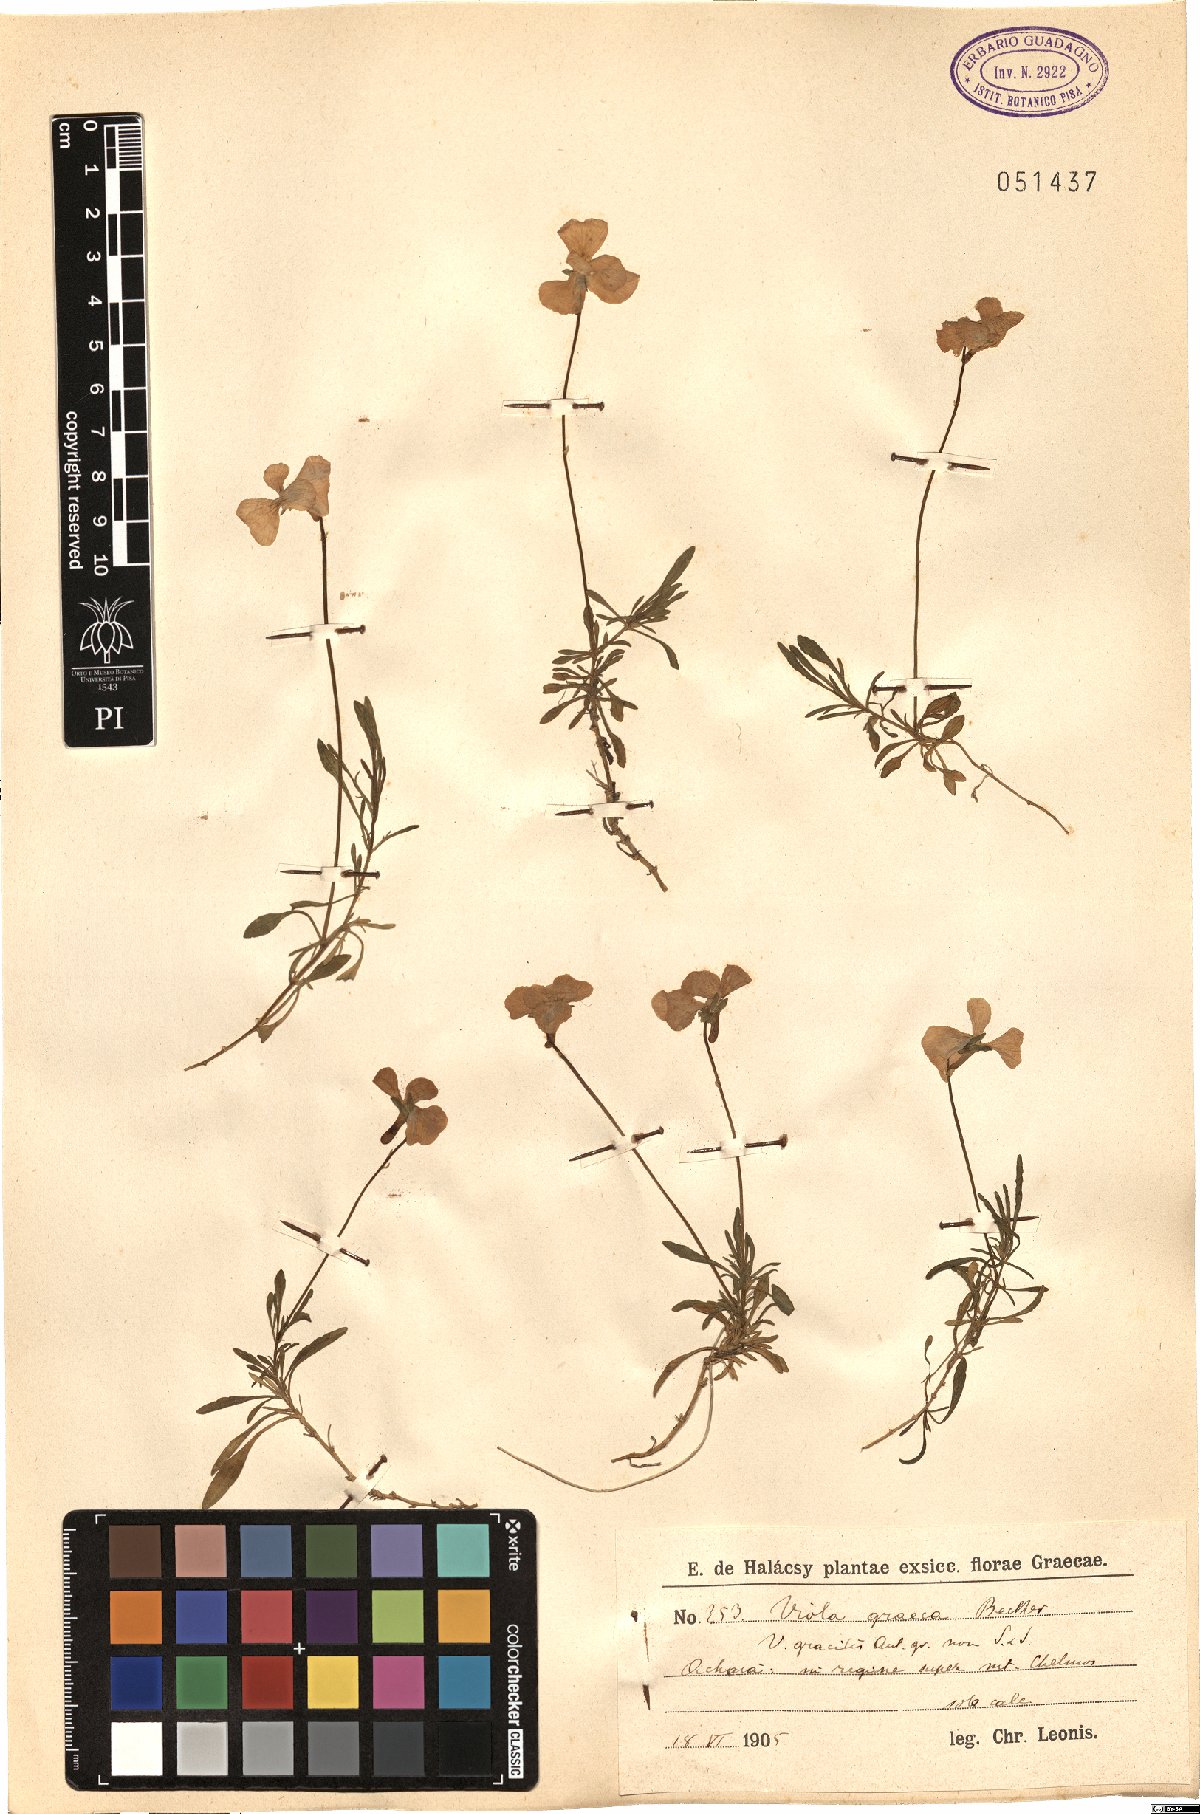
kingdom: Plantae
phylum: Tracheophyta
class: Magnoliopsida
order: Malpighiales
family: Violaceae
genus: Viola
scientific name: Viola graeca
